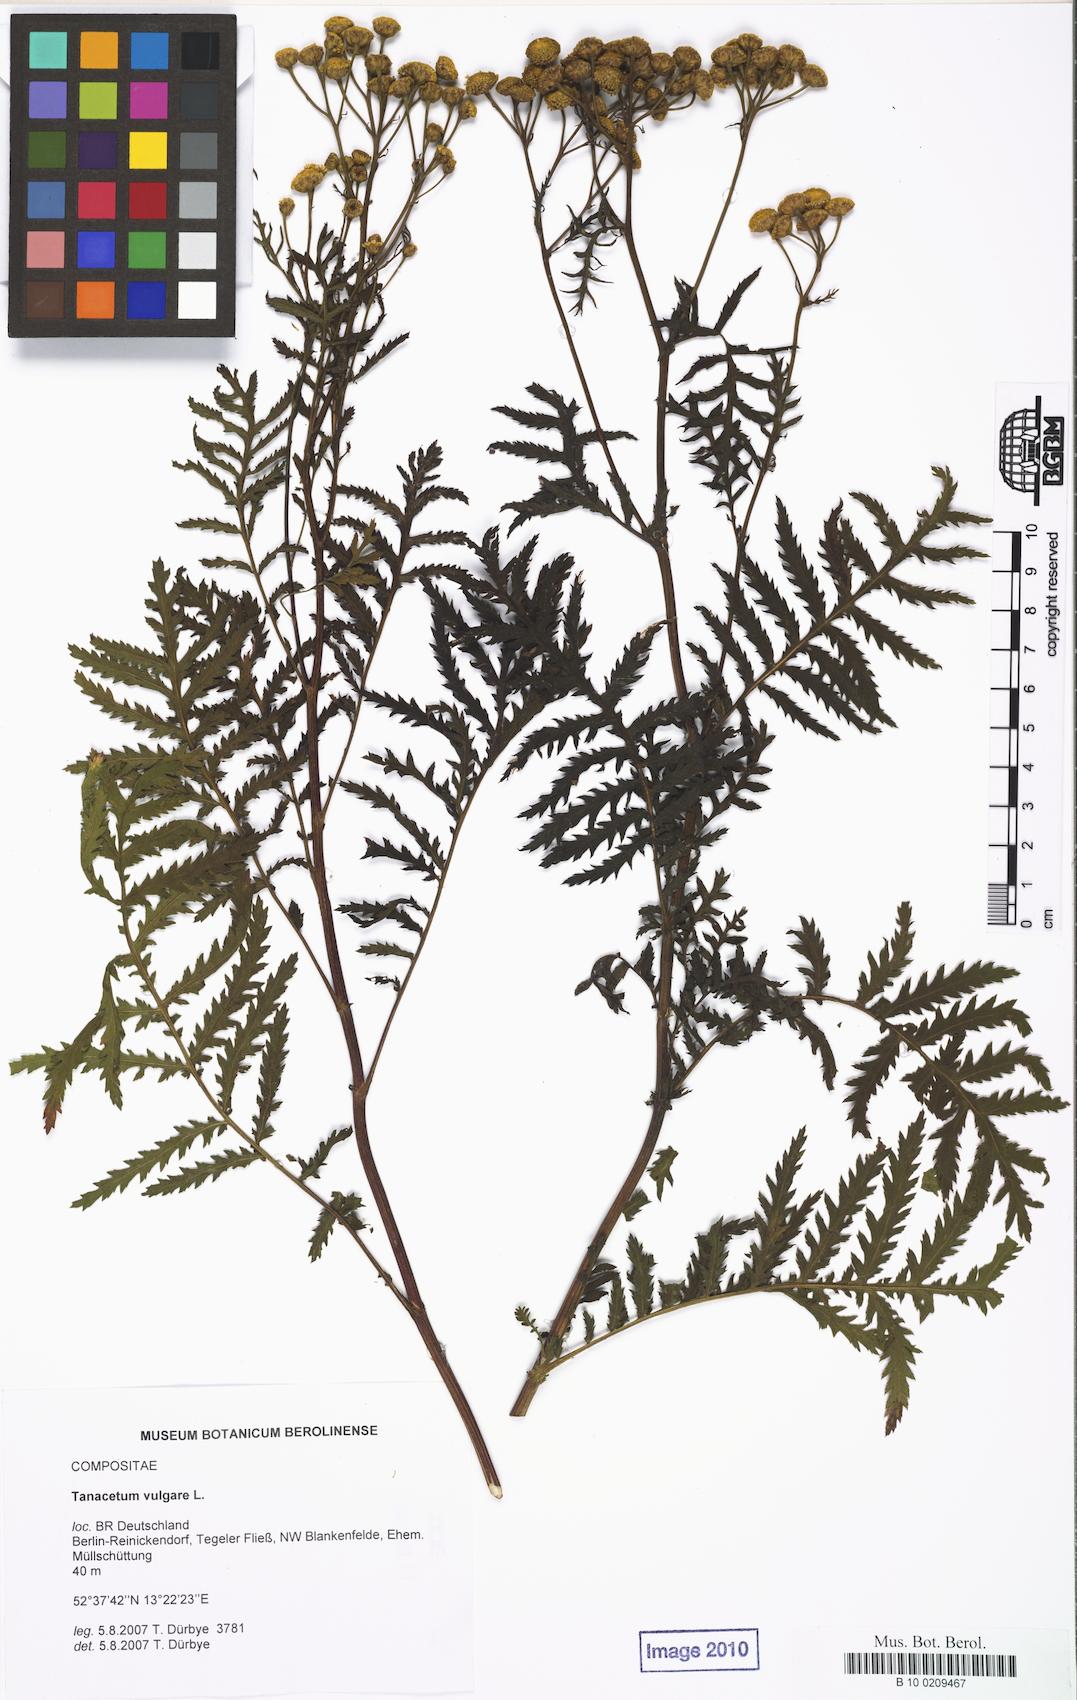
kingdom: Plantae
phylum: Tracheophyta
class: Magnoliopsida
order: Asterales
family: Asteraceae
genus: Tanacetum
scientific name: Tanacetum vulgare
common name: Common tansy
